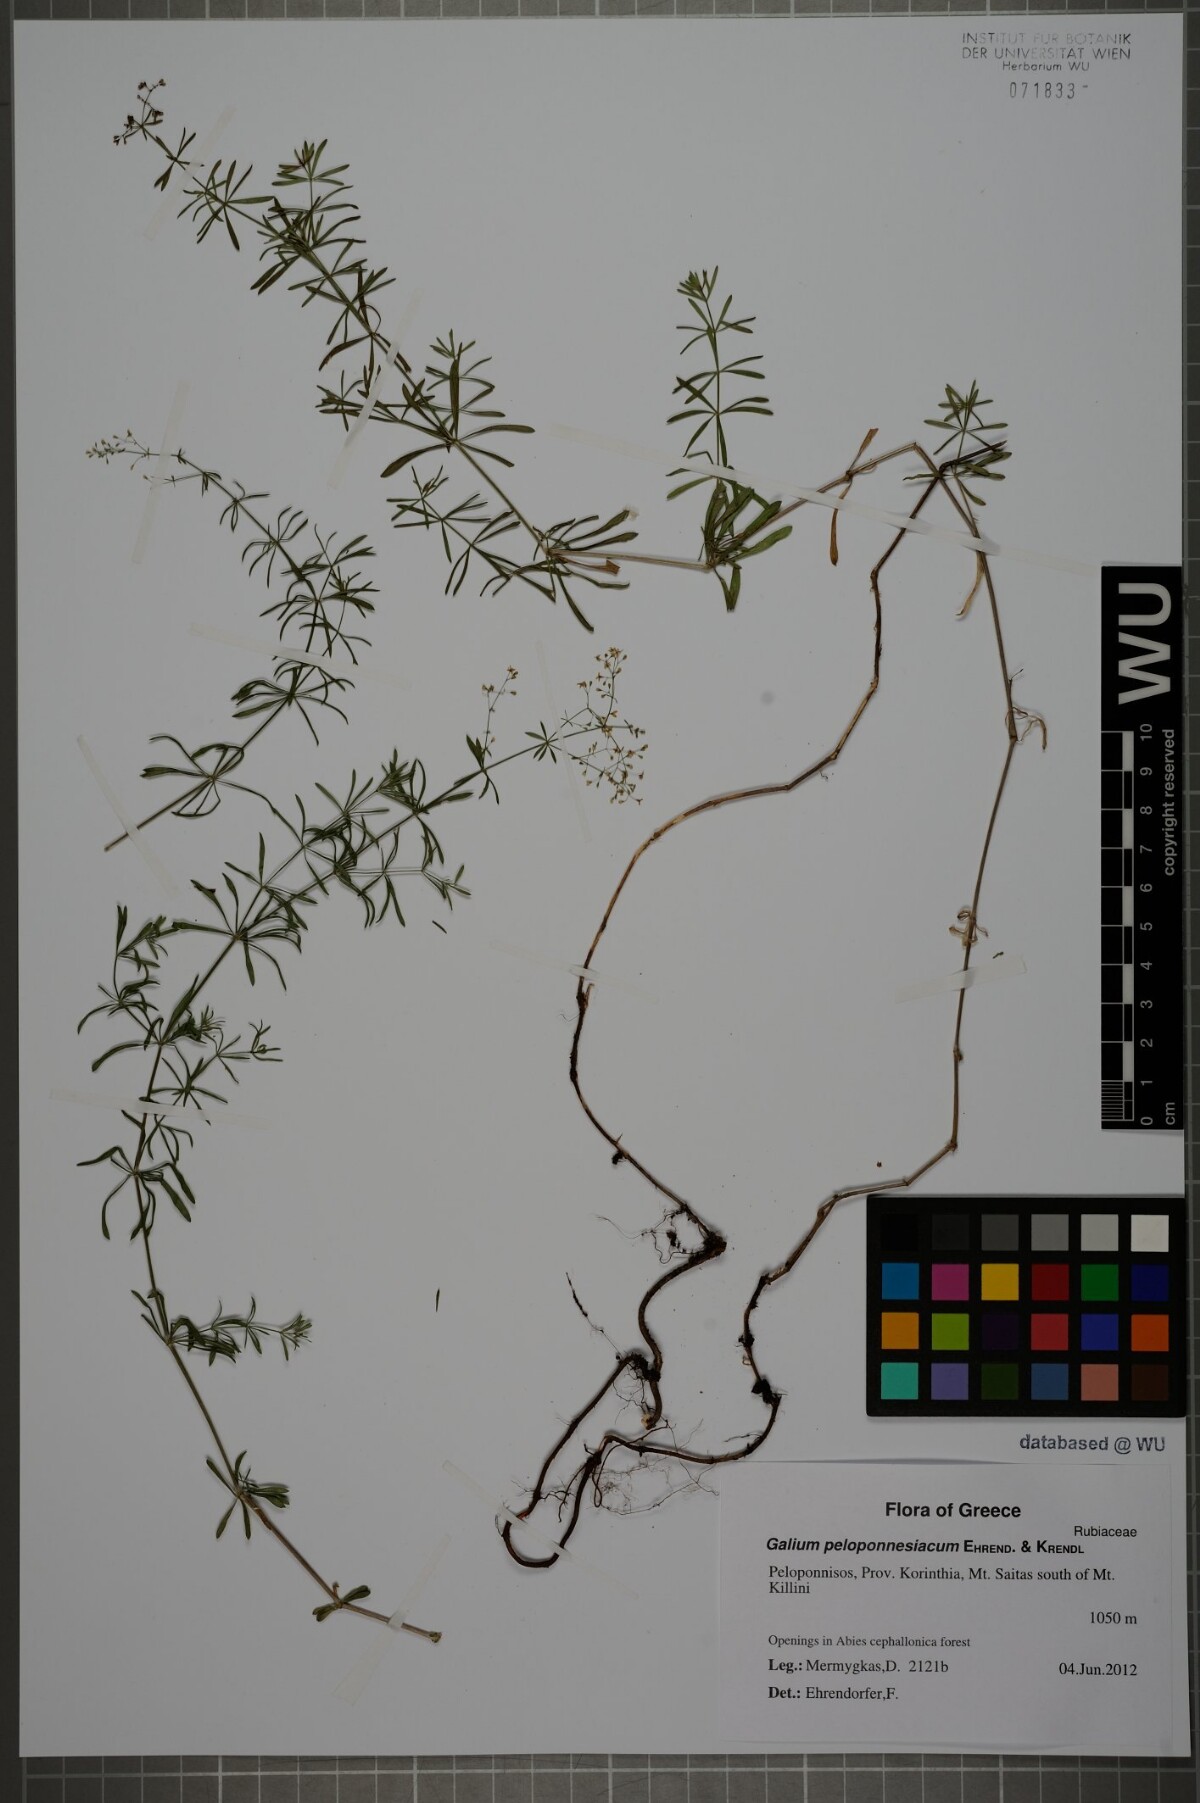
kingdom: Plantae
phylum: Tracheophyta
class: Magnoliopsida
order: Gentianales
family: Rubiaceae
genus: Galium
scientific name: Galium peloponnesiacum
